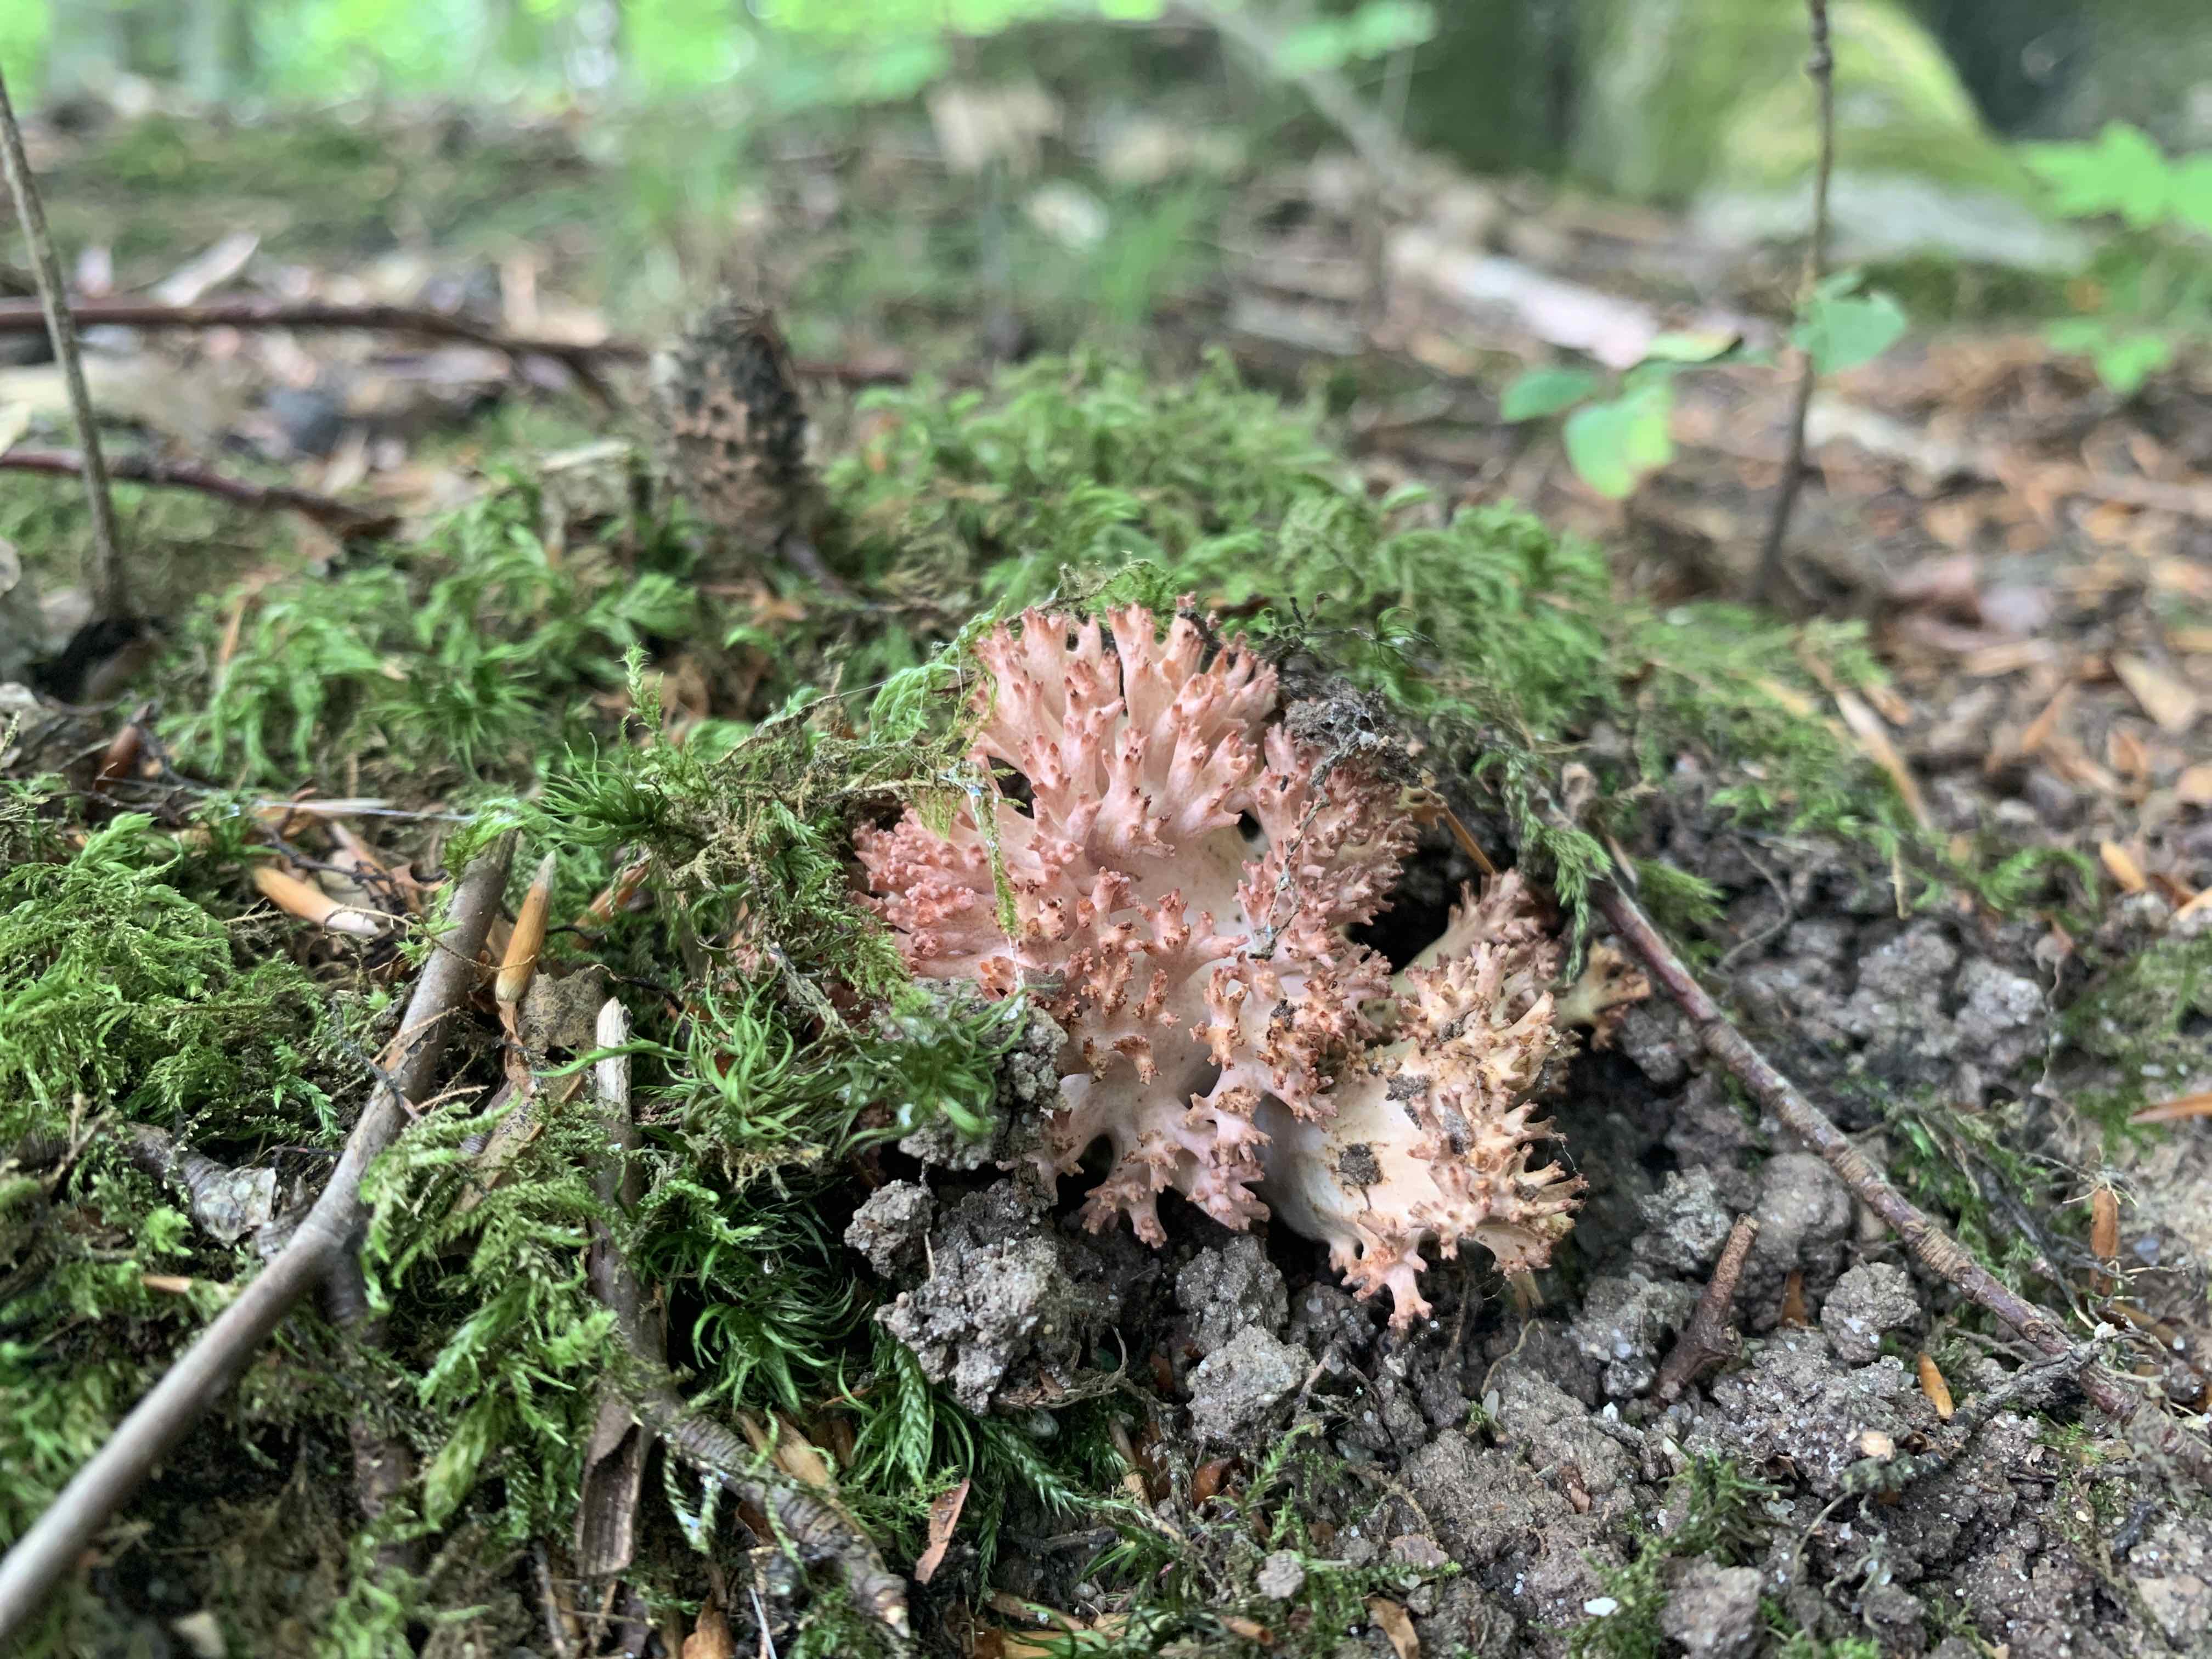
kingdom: Fungi
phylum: Basidiomycota
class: Agaricomycetes
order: Gomphales
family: Gomphaceae
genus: Ramaria
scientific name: Ramaria botrytis
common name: drue-koralsvamp
